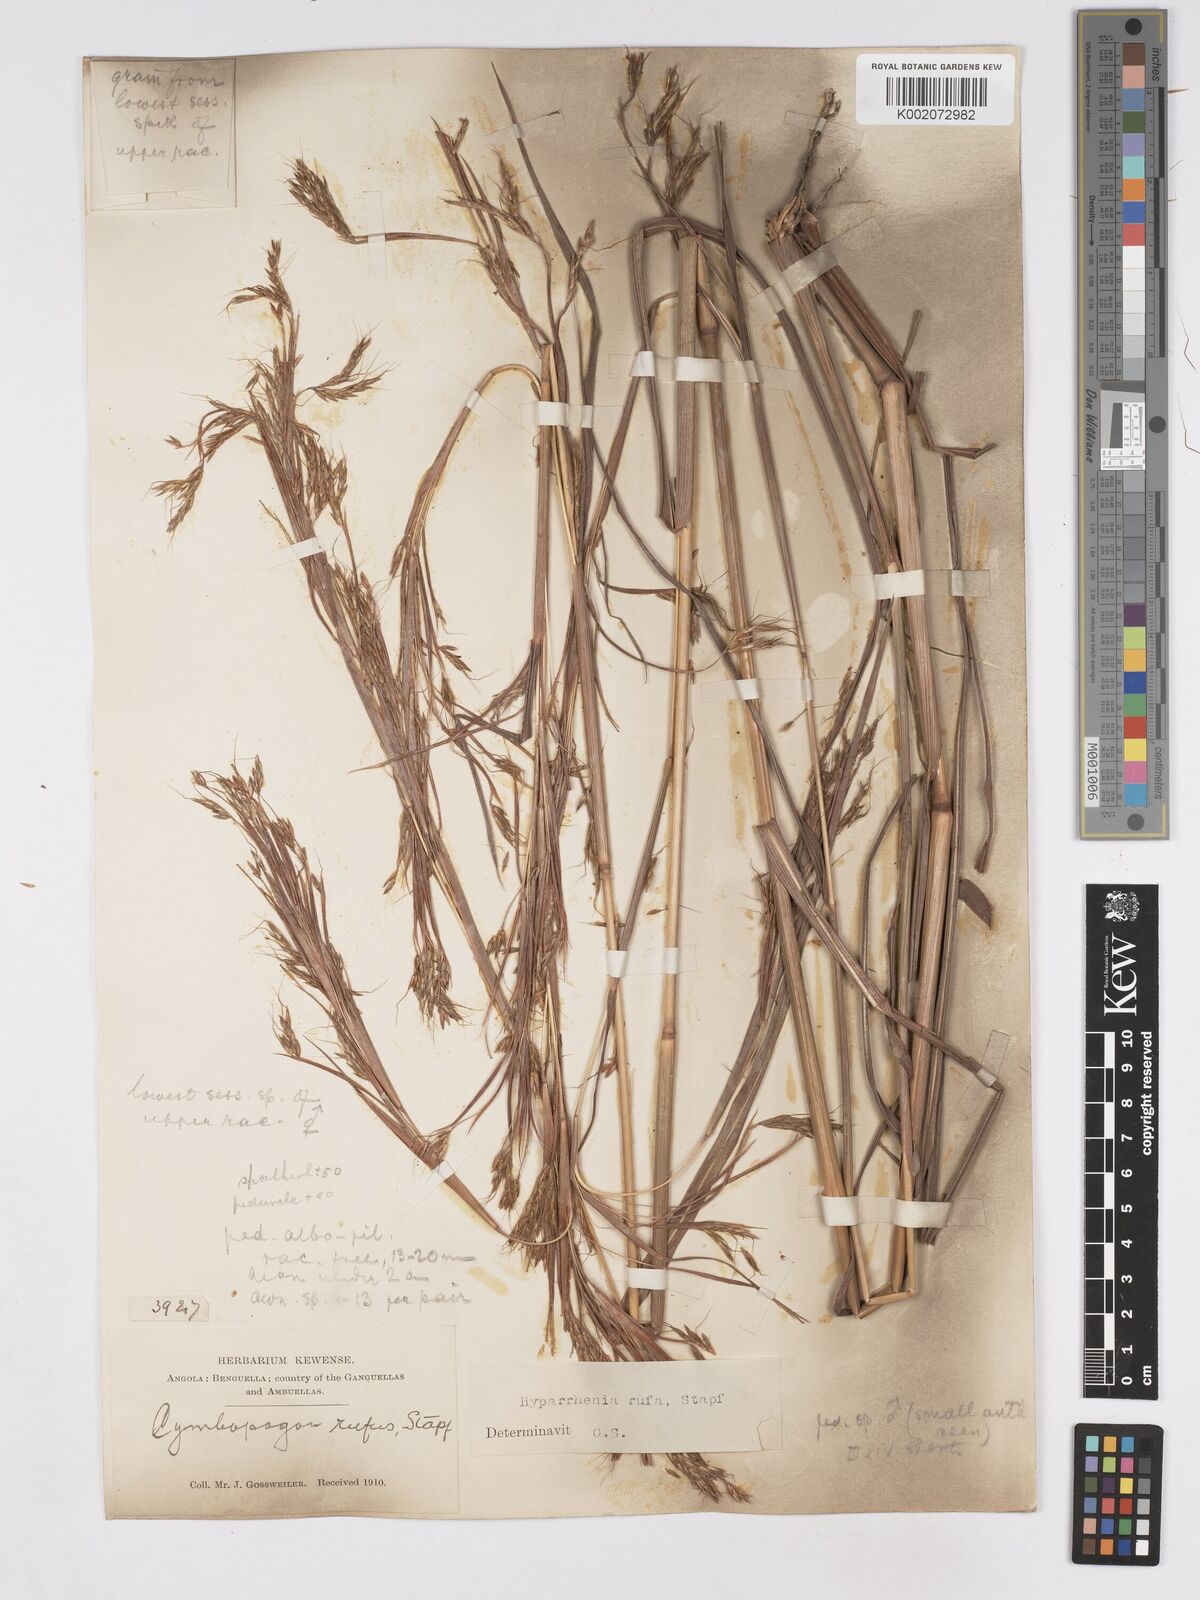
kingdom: Plantae
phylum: Tracheophyta
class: Liliopsida
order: Poales
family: Poaceae
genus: Hyparrhenia
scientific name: Hyparrhenia rufa
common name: Jaraguagrass
